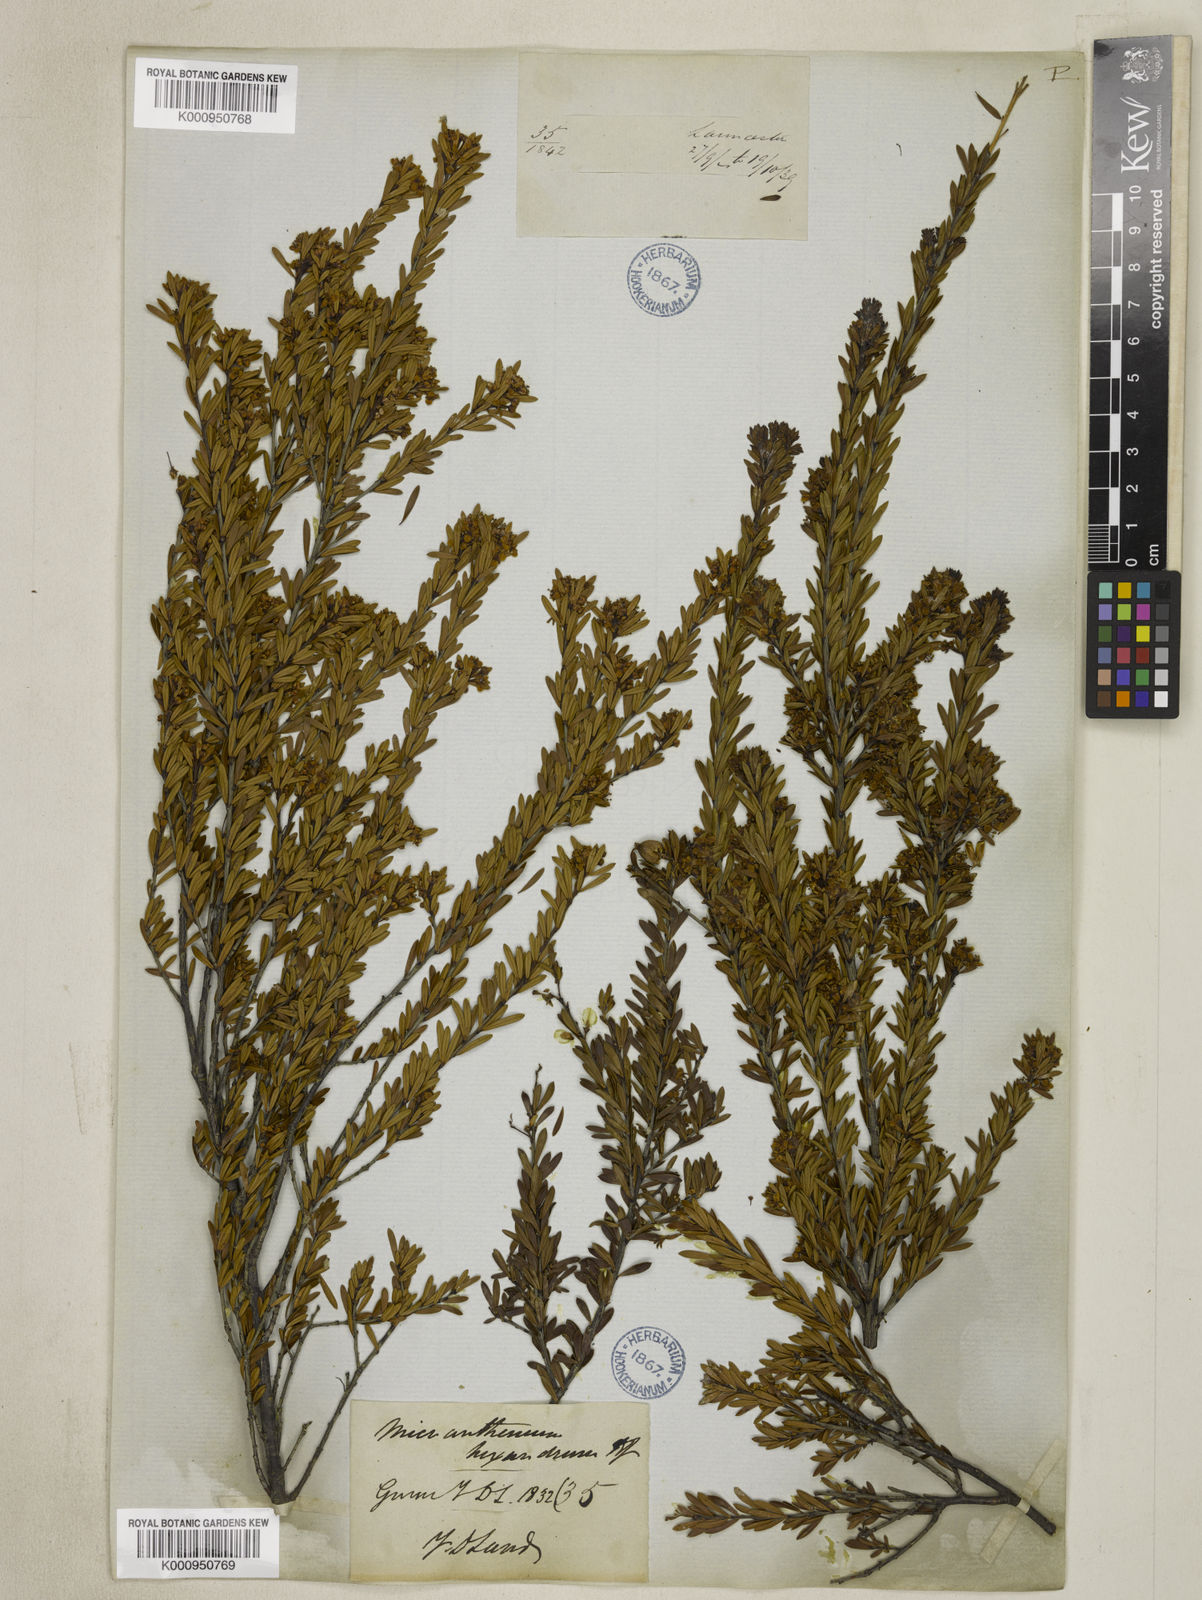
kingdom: Plantae
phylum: Tracheophyta
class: Magnoliopsida
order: Malpighiales
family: Picrodendraceae
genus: Micrantheum
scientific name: Micrantheum hexandrum
